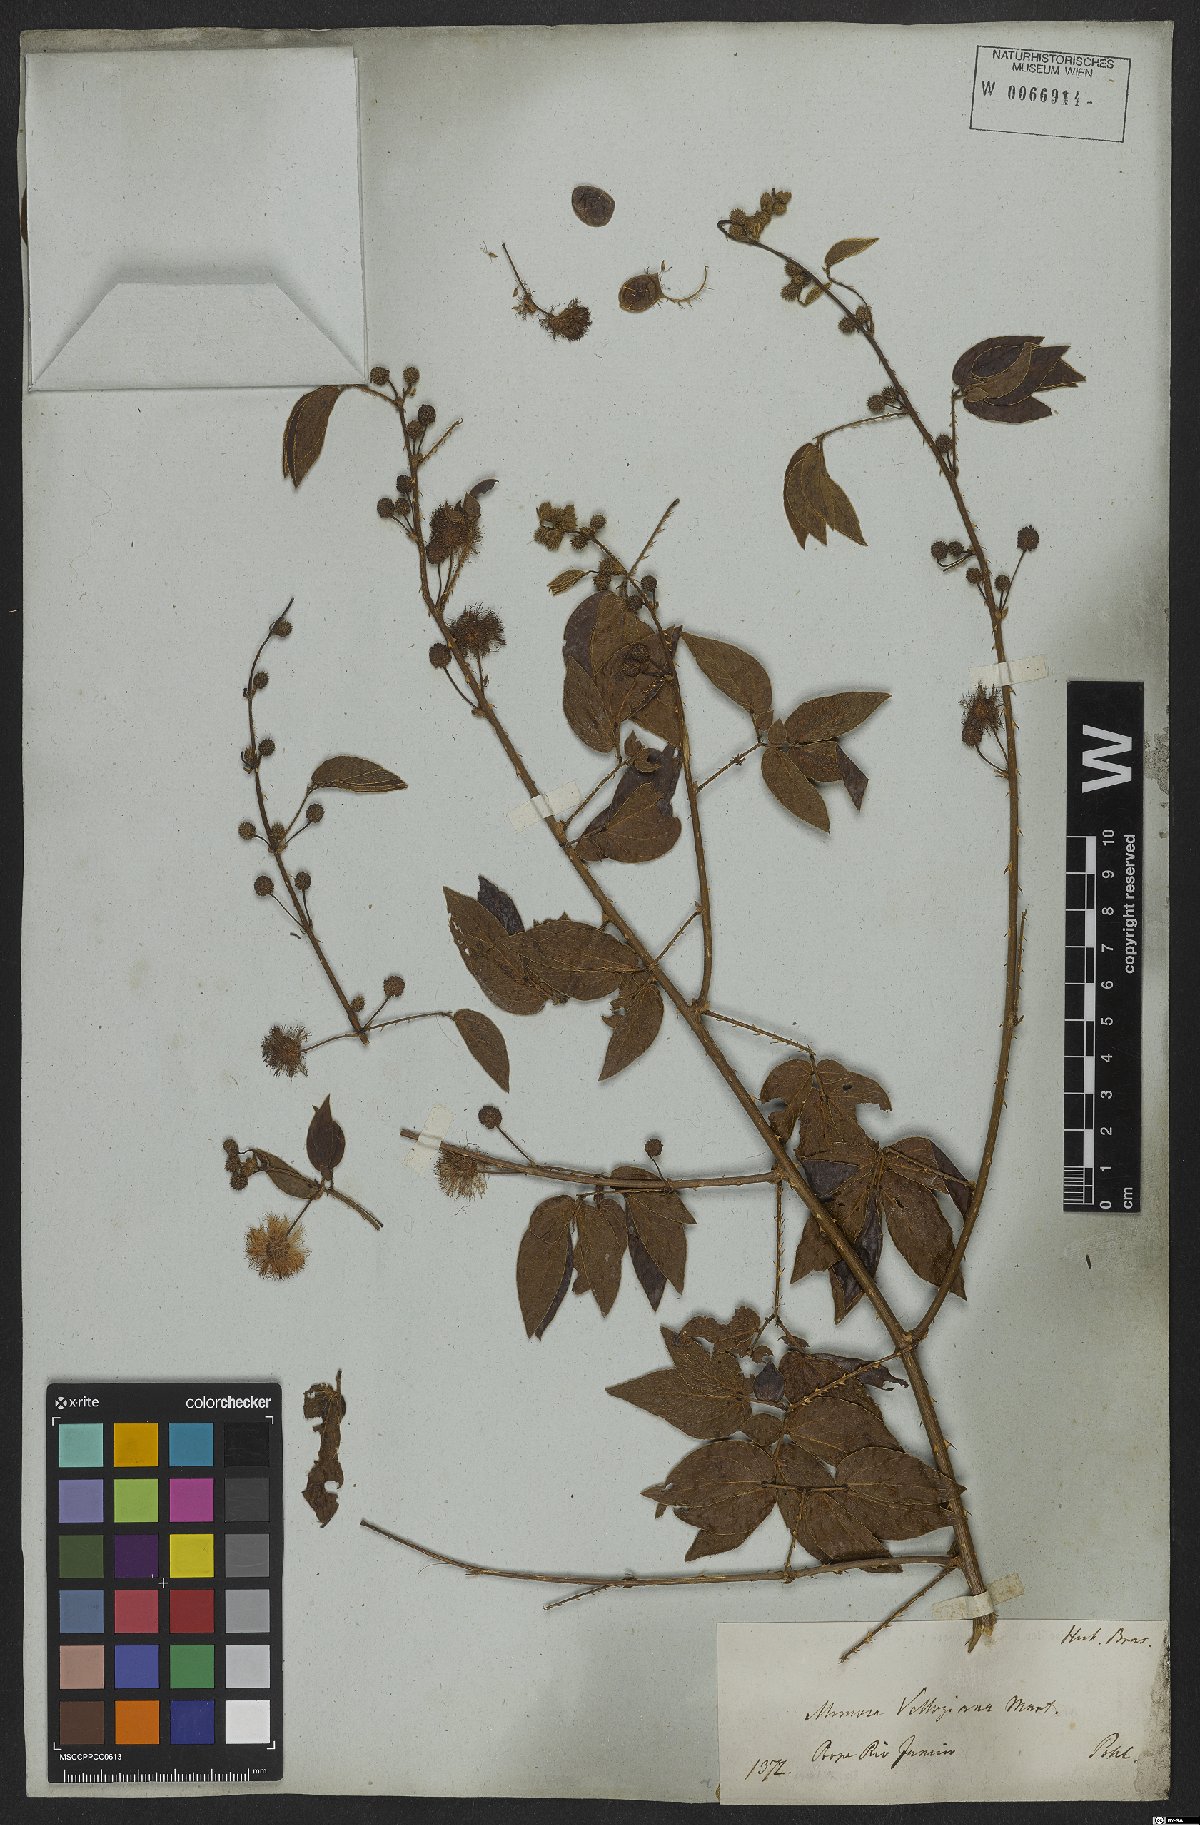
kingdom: Plantae
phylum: Tracheophyta
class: Magnoliopsida
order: Fabales
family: Fabaceae
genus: Mimosa
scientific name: Mimosa velloziana
